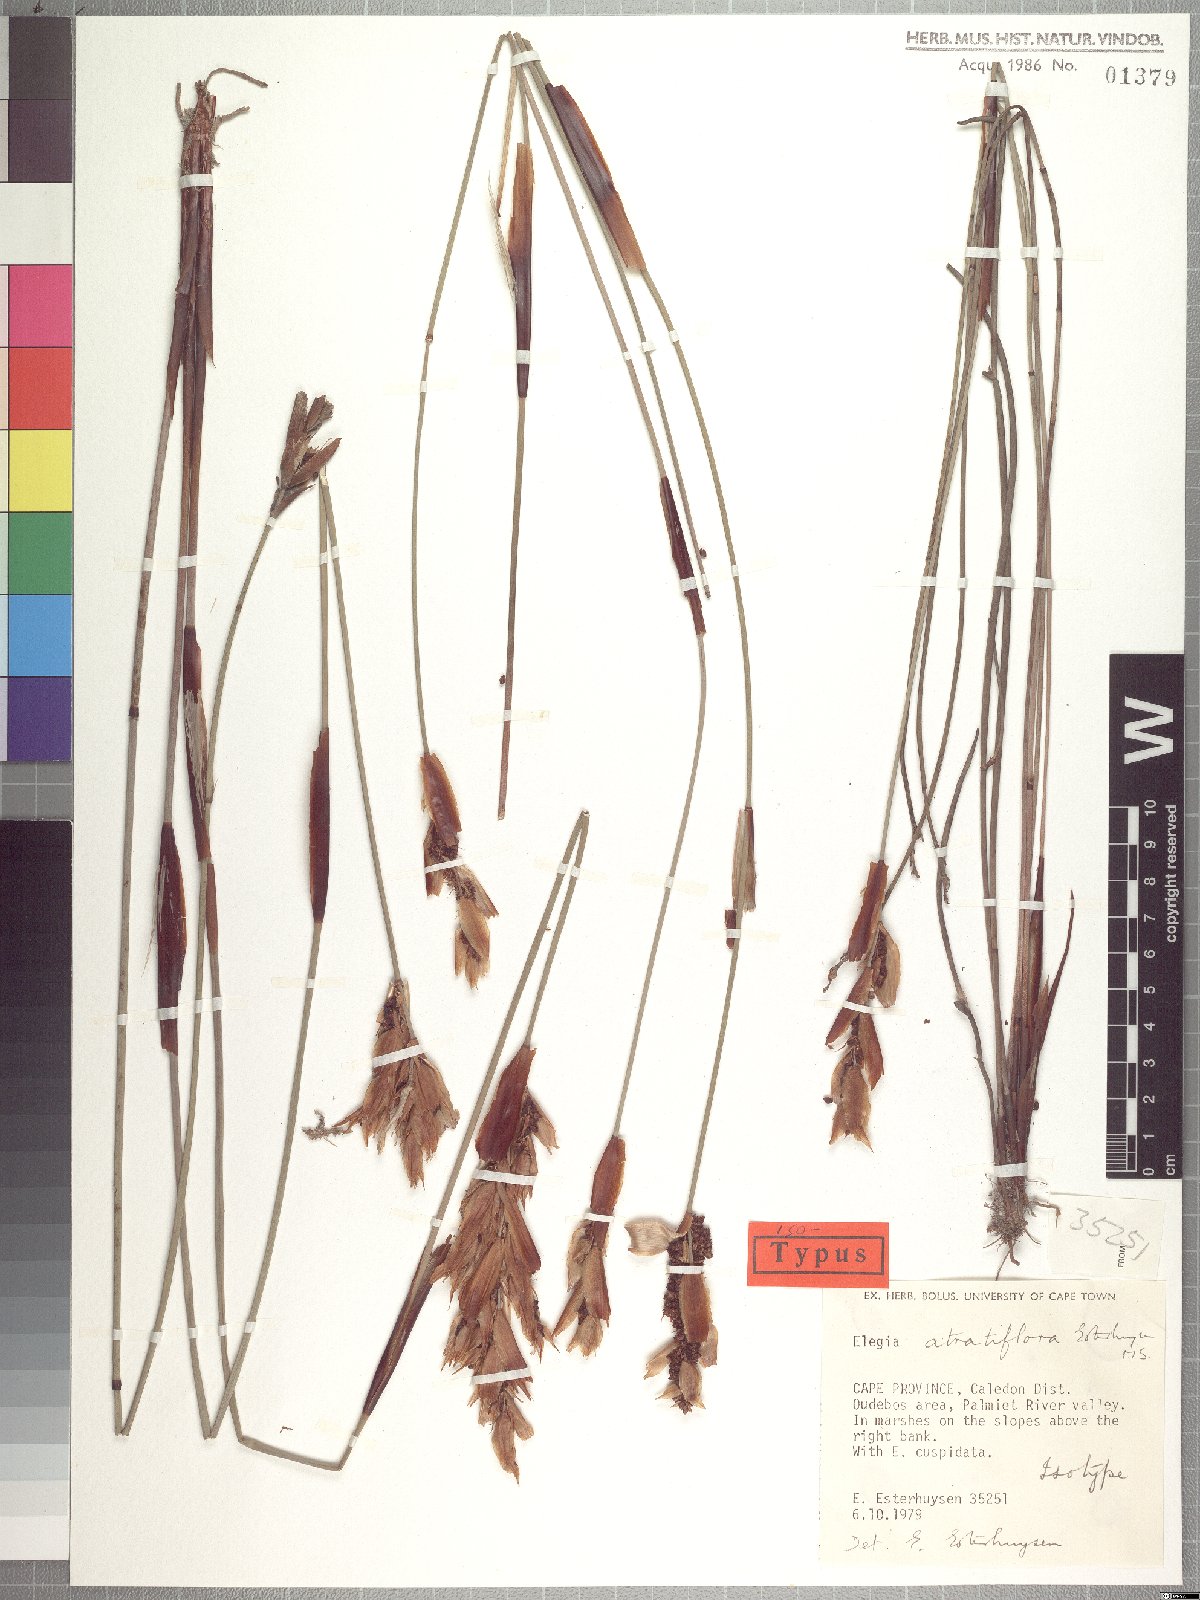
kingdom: Plantae
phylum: Tracheophyta
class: Liliopsida
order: Poales
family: Restionaceae
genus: Elegia
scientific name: Elegia atratiflora
